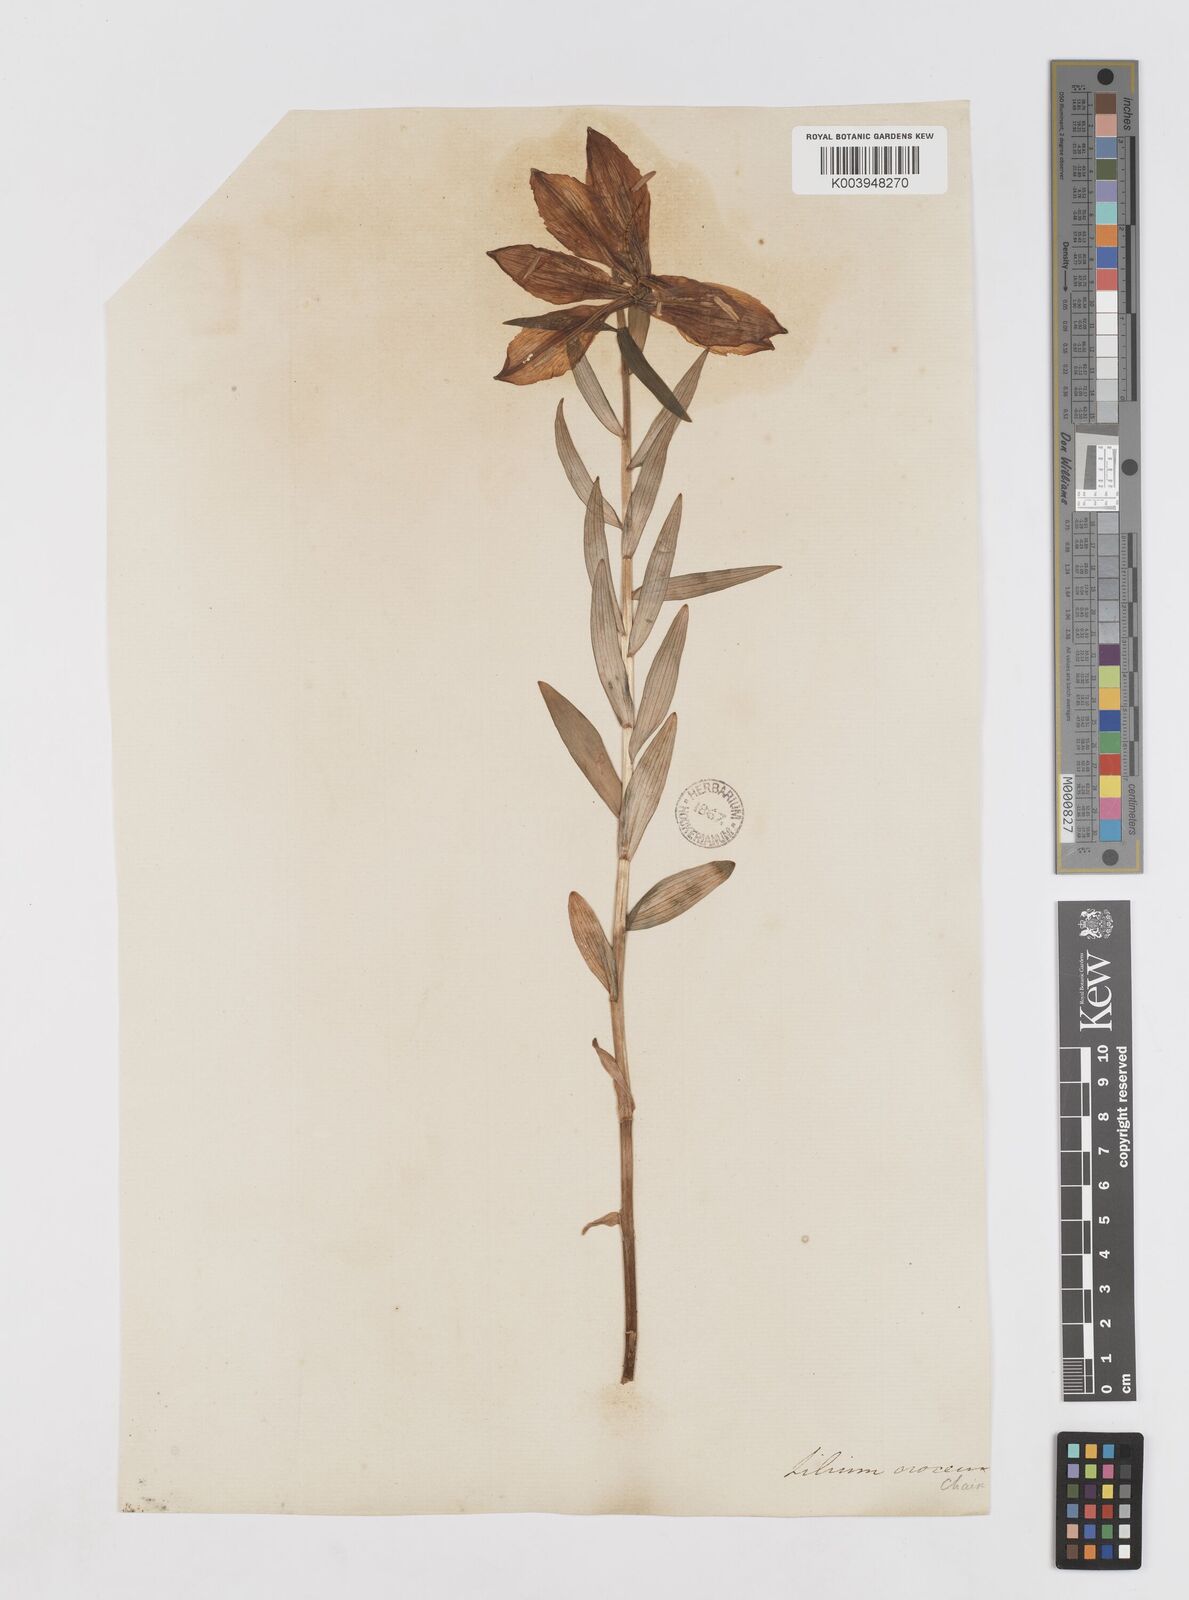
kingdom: Plantae
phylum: Tracheophyta
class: Liliopsida
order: Liliales
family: Liliaceae
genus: Lilium
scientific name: Lilium bulbiferum
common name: Orange lily
